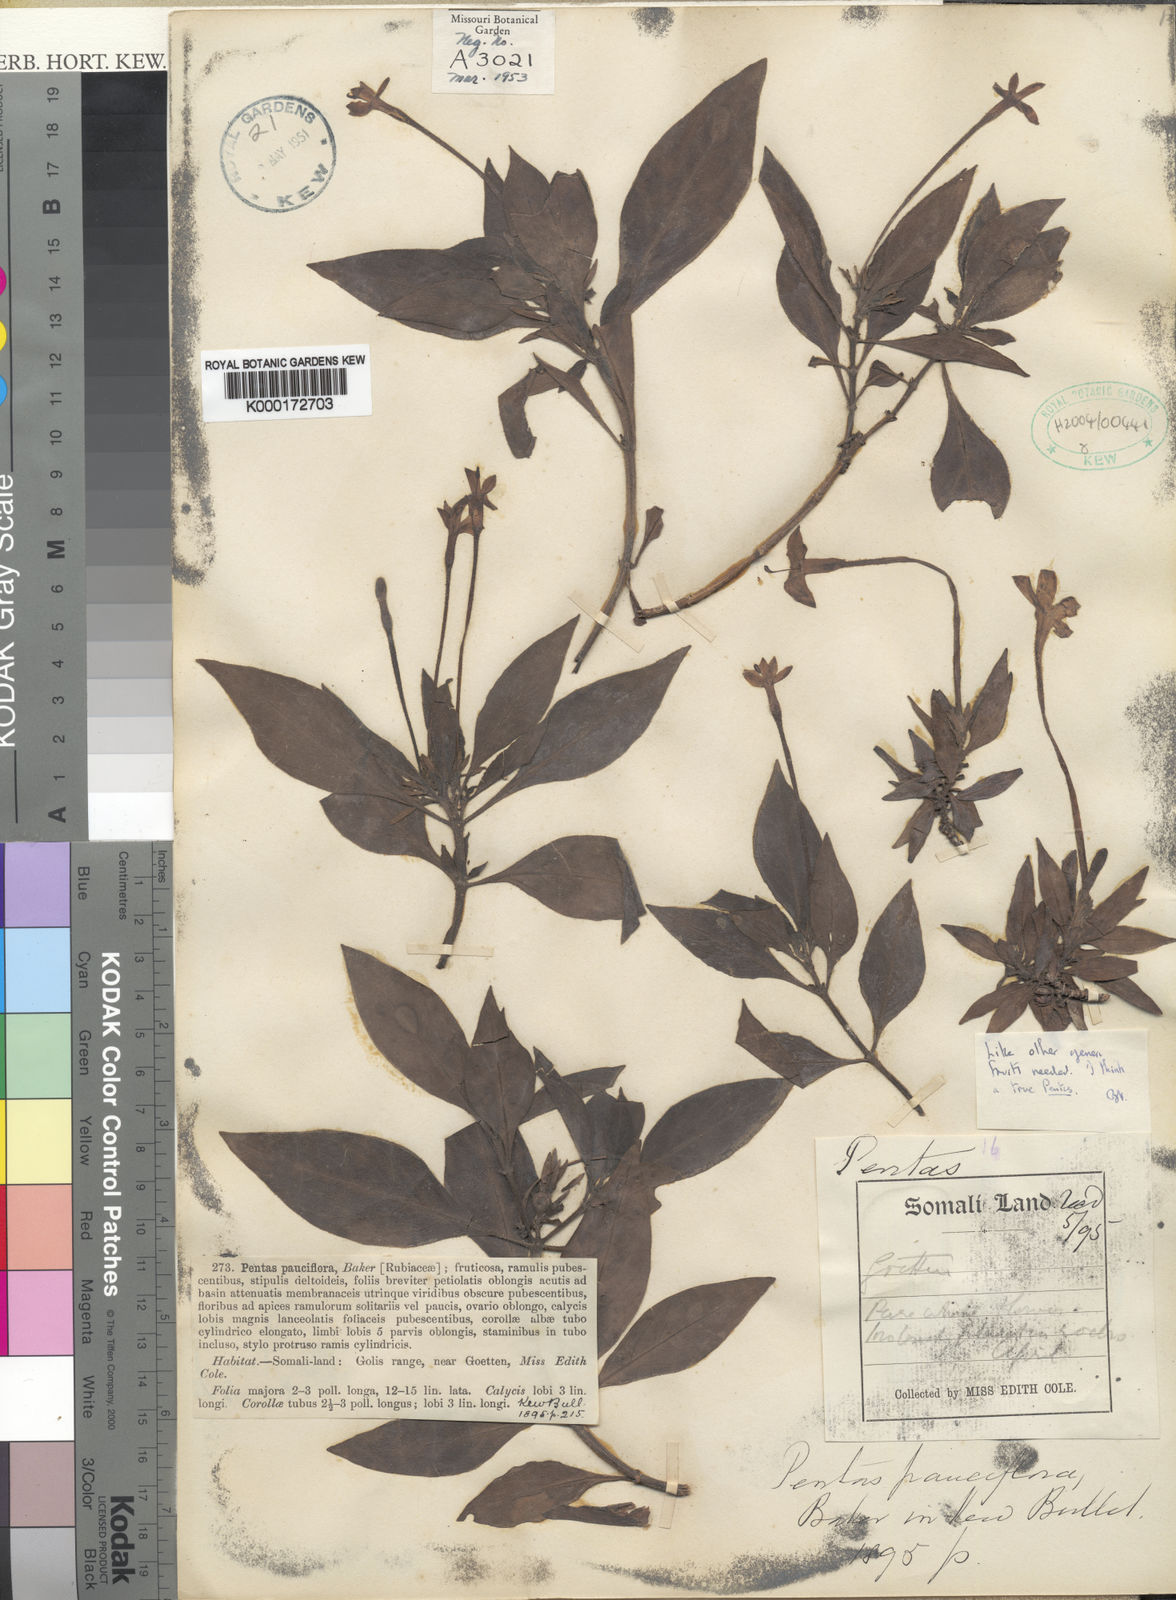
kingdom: Plantae
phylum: Tracheophyta
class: Magnoliopsida
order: Gentianales
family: Rubiaceae
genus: Pentas
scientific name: Pentas pauciflora
